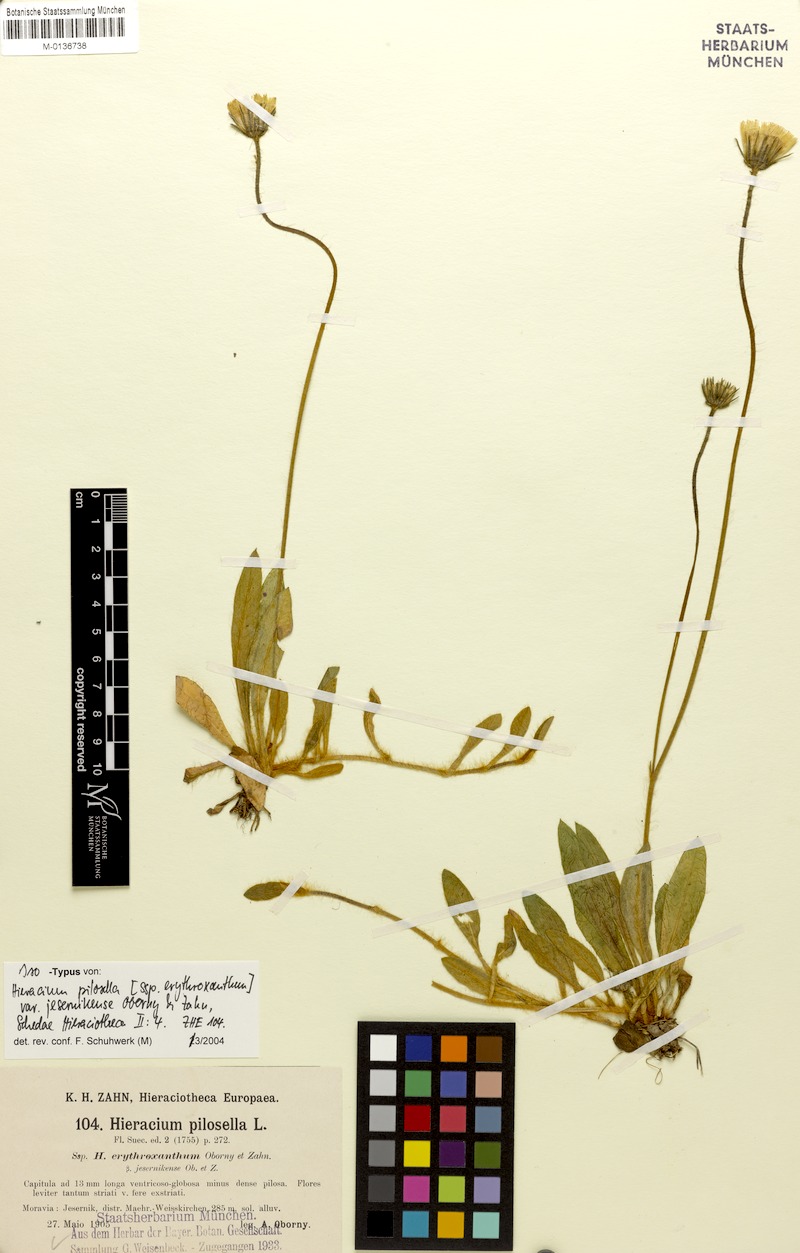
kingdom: Plantae
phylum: Tracheophyta
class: Magnoliopsida
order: Asterales
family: Asteraceae
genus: Pilosella
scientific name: Pilosella officinarum
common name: Mouse-ear hawkweed
